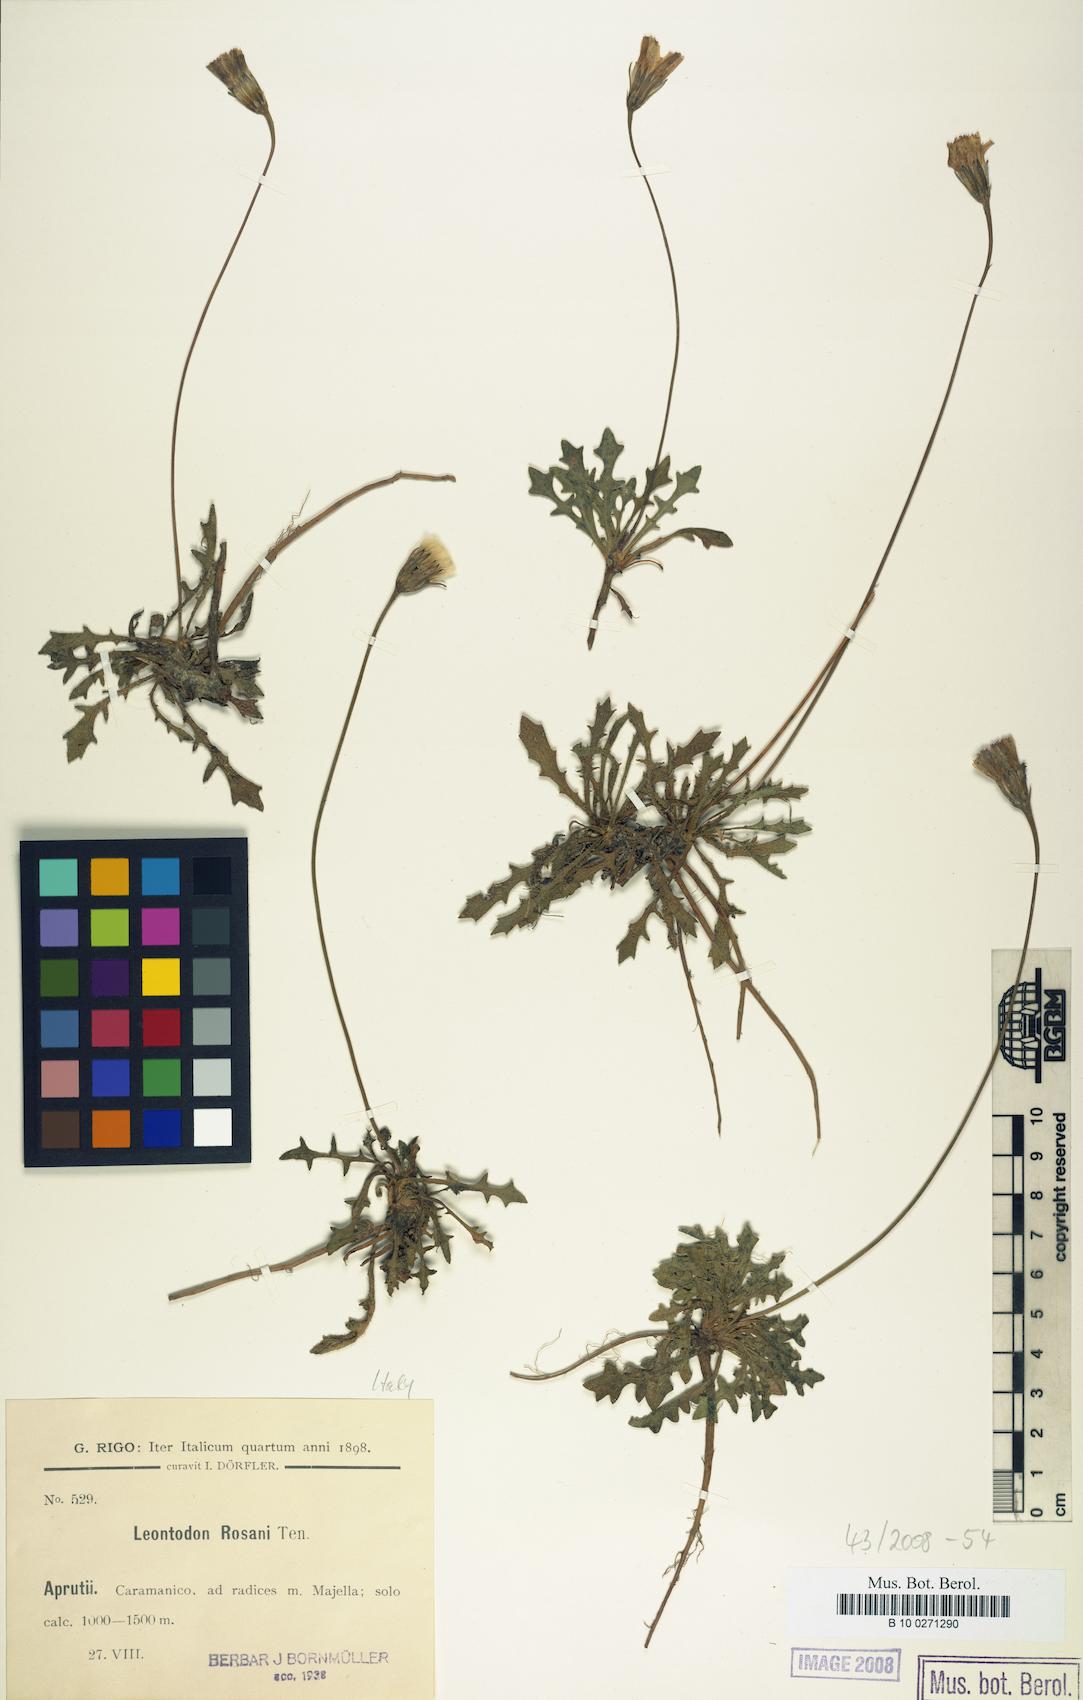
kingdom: Plantae
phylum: Tracheophyta
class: Magnoliopsida
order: Asterales
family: Asteraceae
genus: Leontodon
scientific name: Leontodon hirtus
